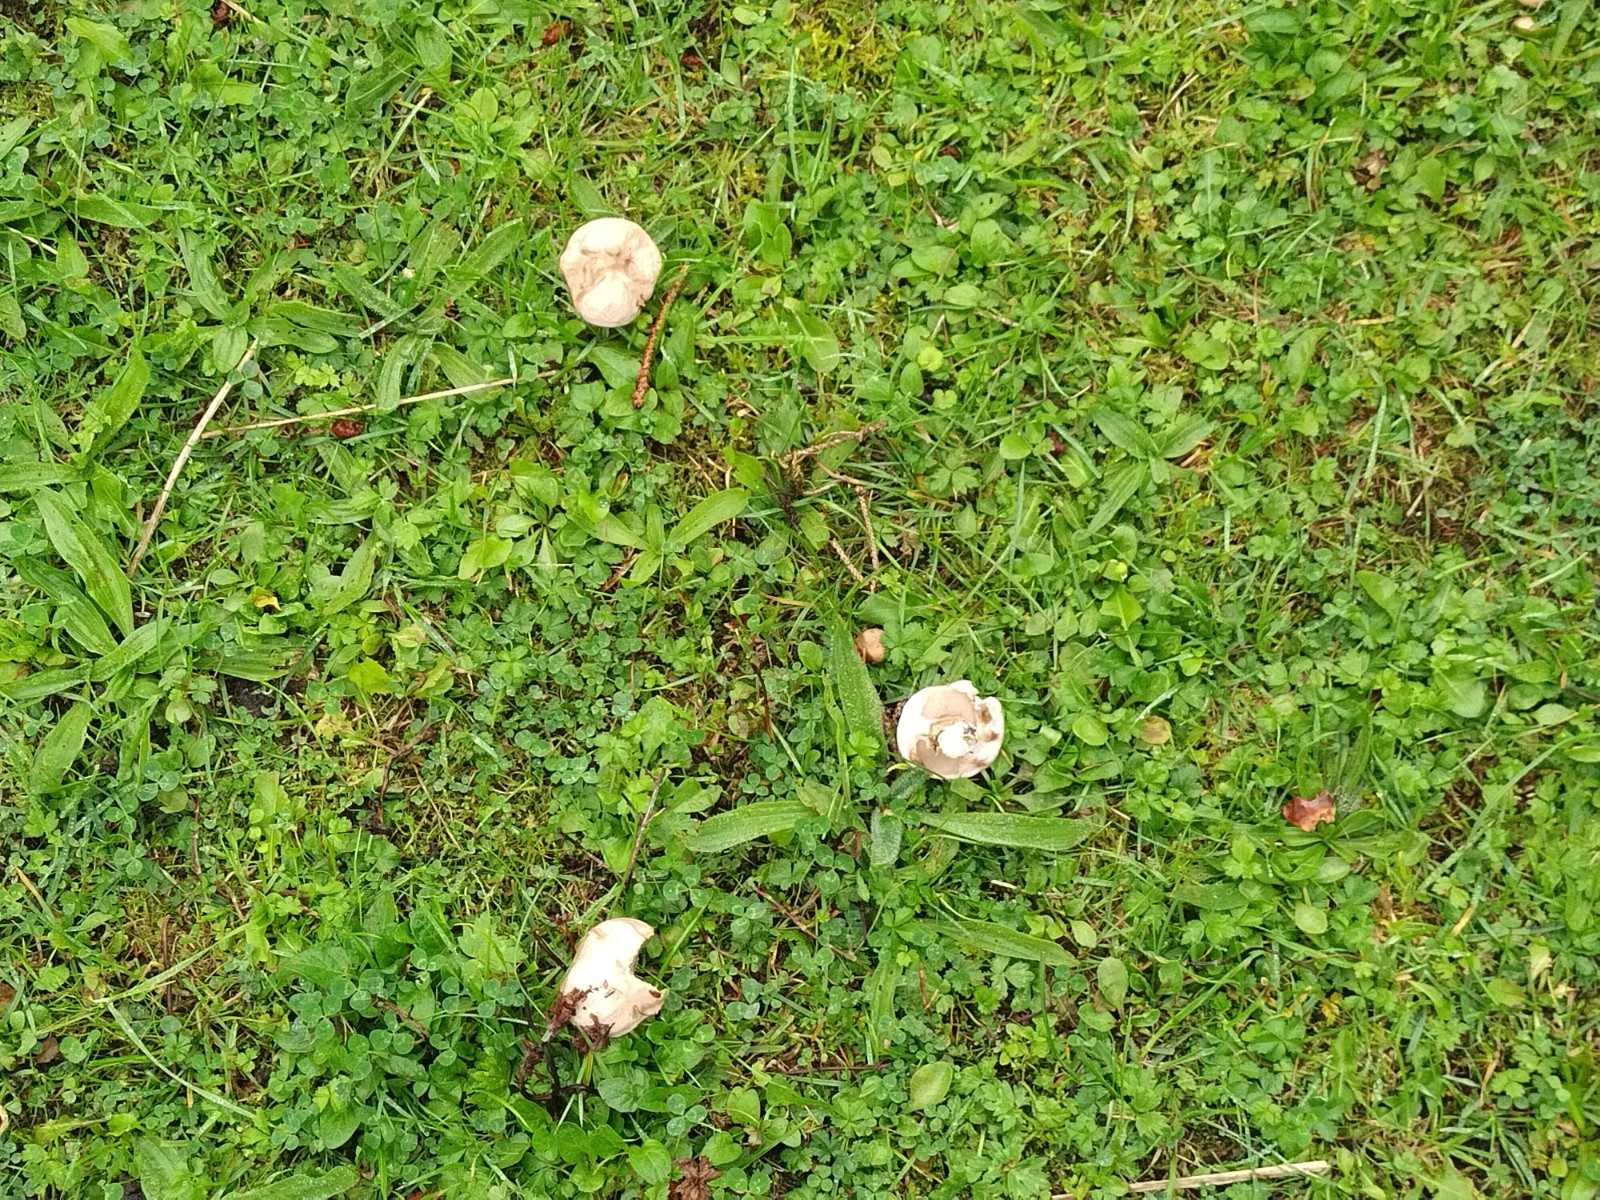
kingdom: Fungi
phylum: Basidiomycota
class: Agaricomycetes
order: Boletales
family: Suillaceae
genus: Suillus
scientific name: Suillus viscidus
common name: olivengrå slimrørhat
